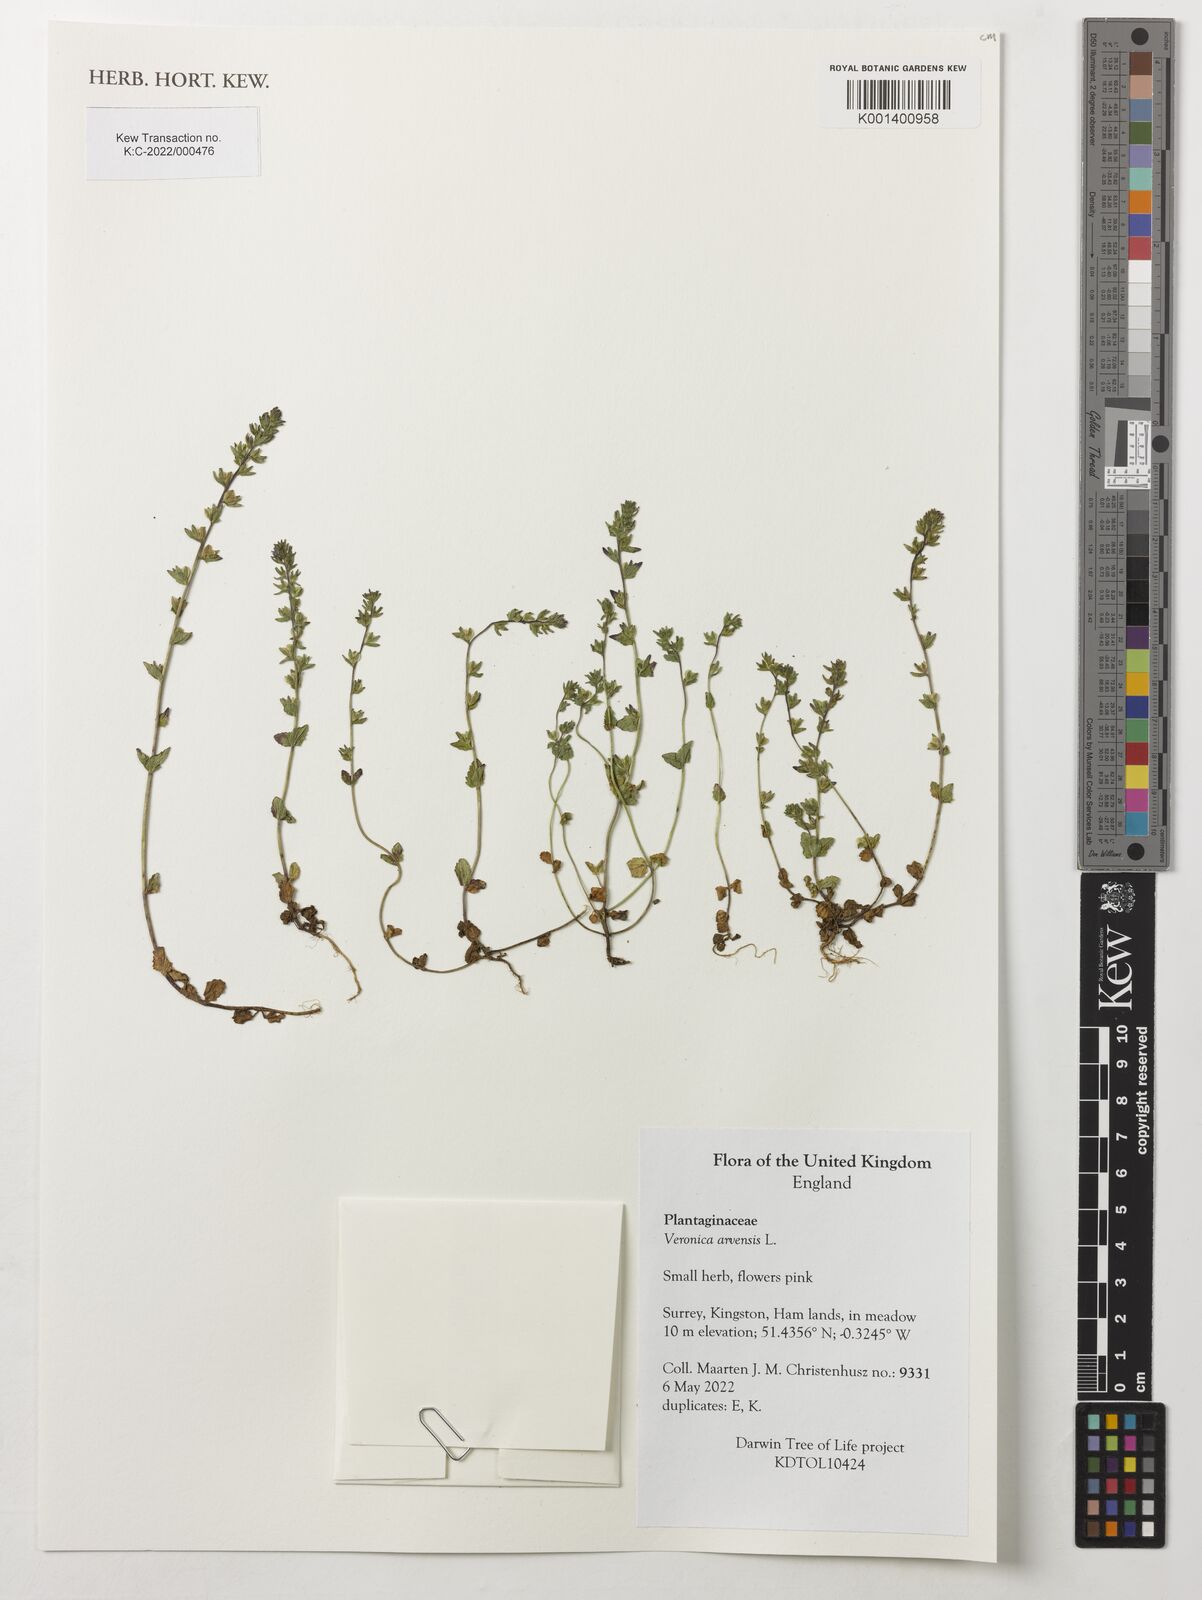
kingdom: Plantae
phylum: Tracheophyta
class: Magnoliopsida
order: Lamiales
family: Plantaginaceae
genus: Veronica
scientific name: Veronica arvensis
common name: Corn speedwell
